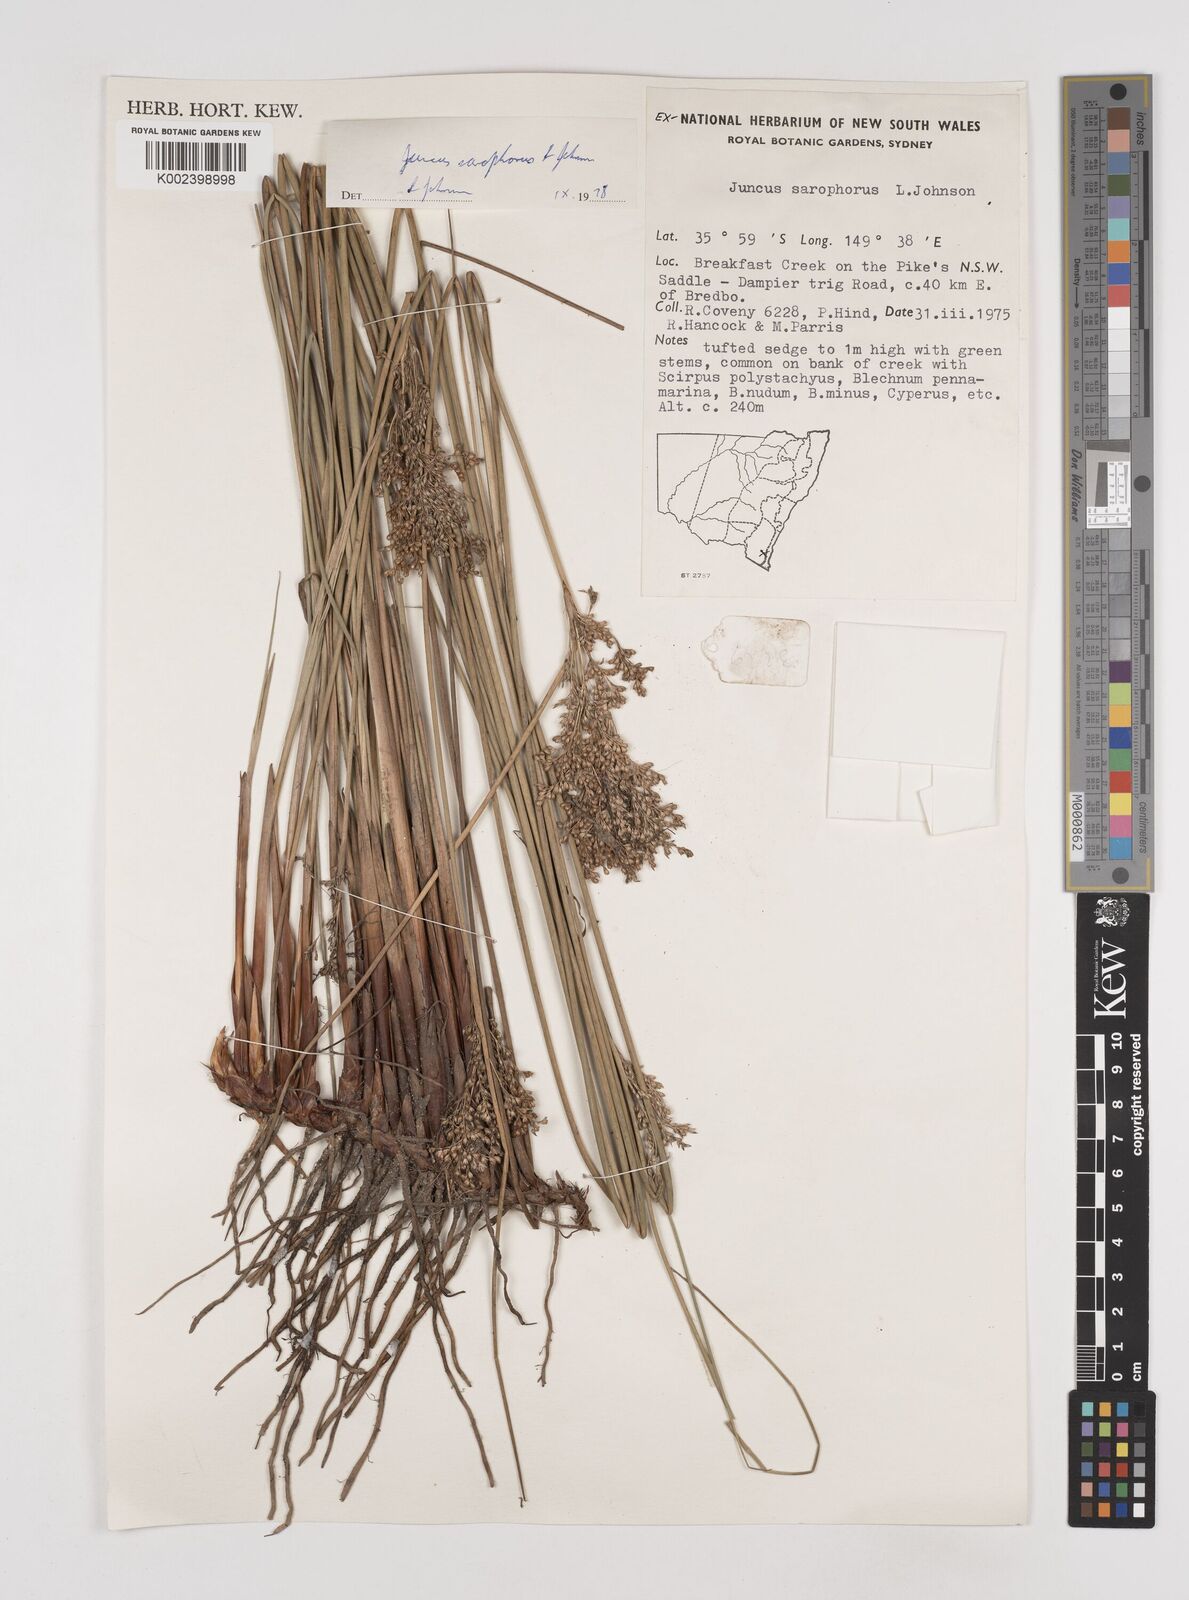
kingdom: Plantae
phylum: Tracheophyta
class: Liliopsida
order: Poales
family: Juncaceae
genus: Juncus
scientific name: Juncus sarophorus
